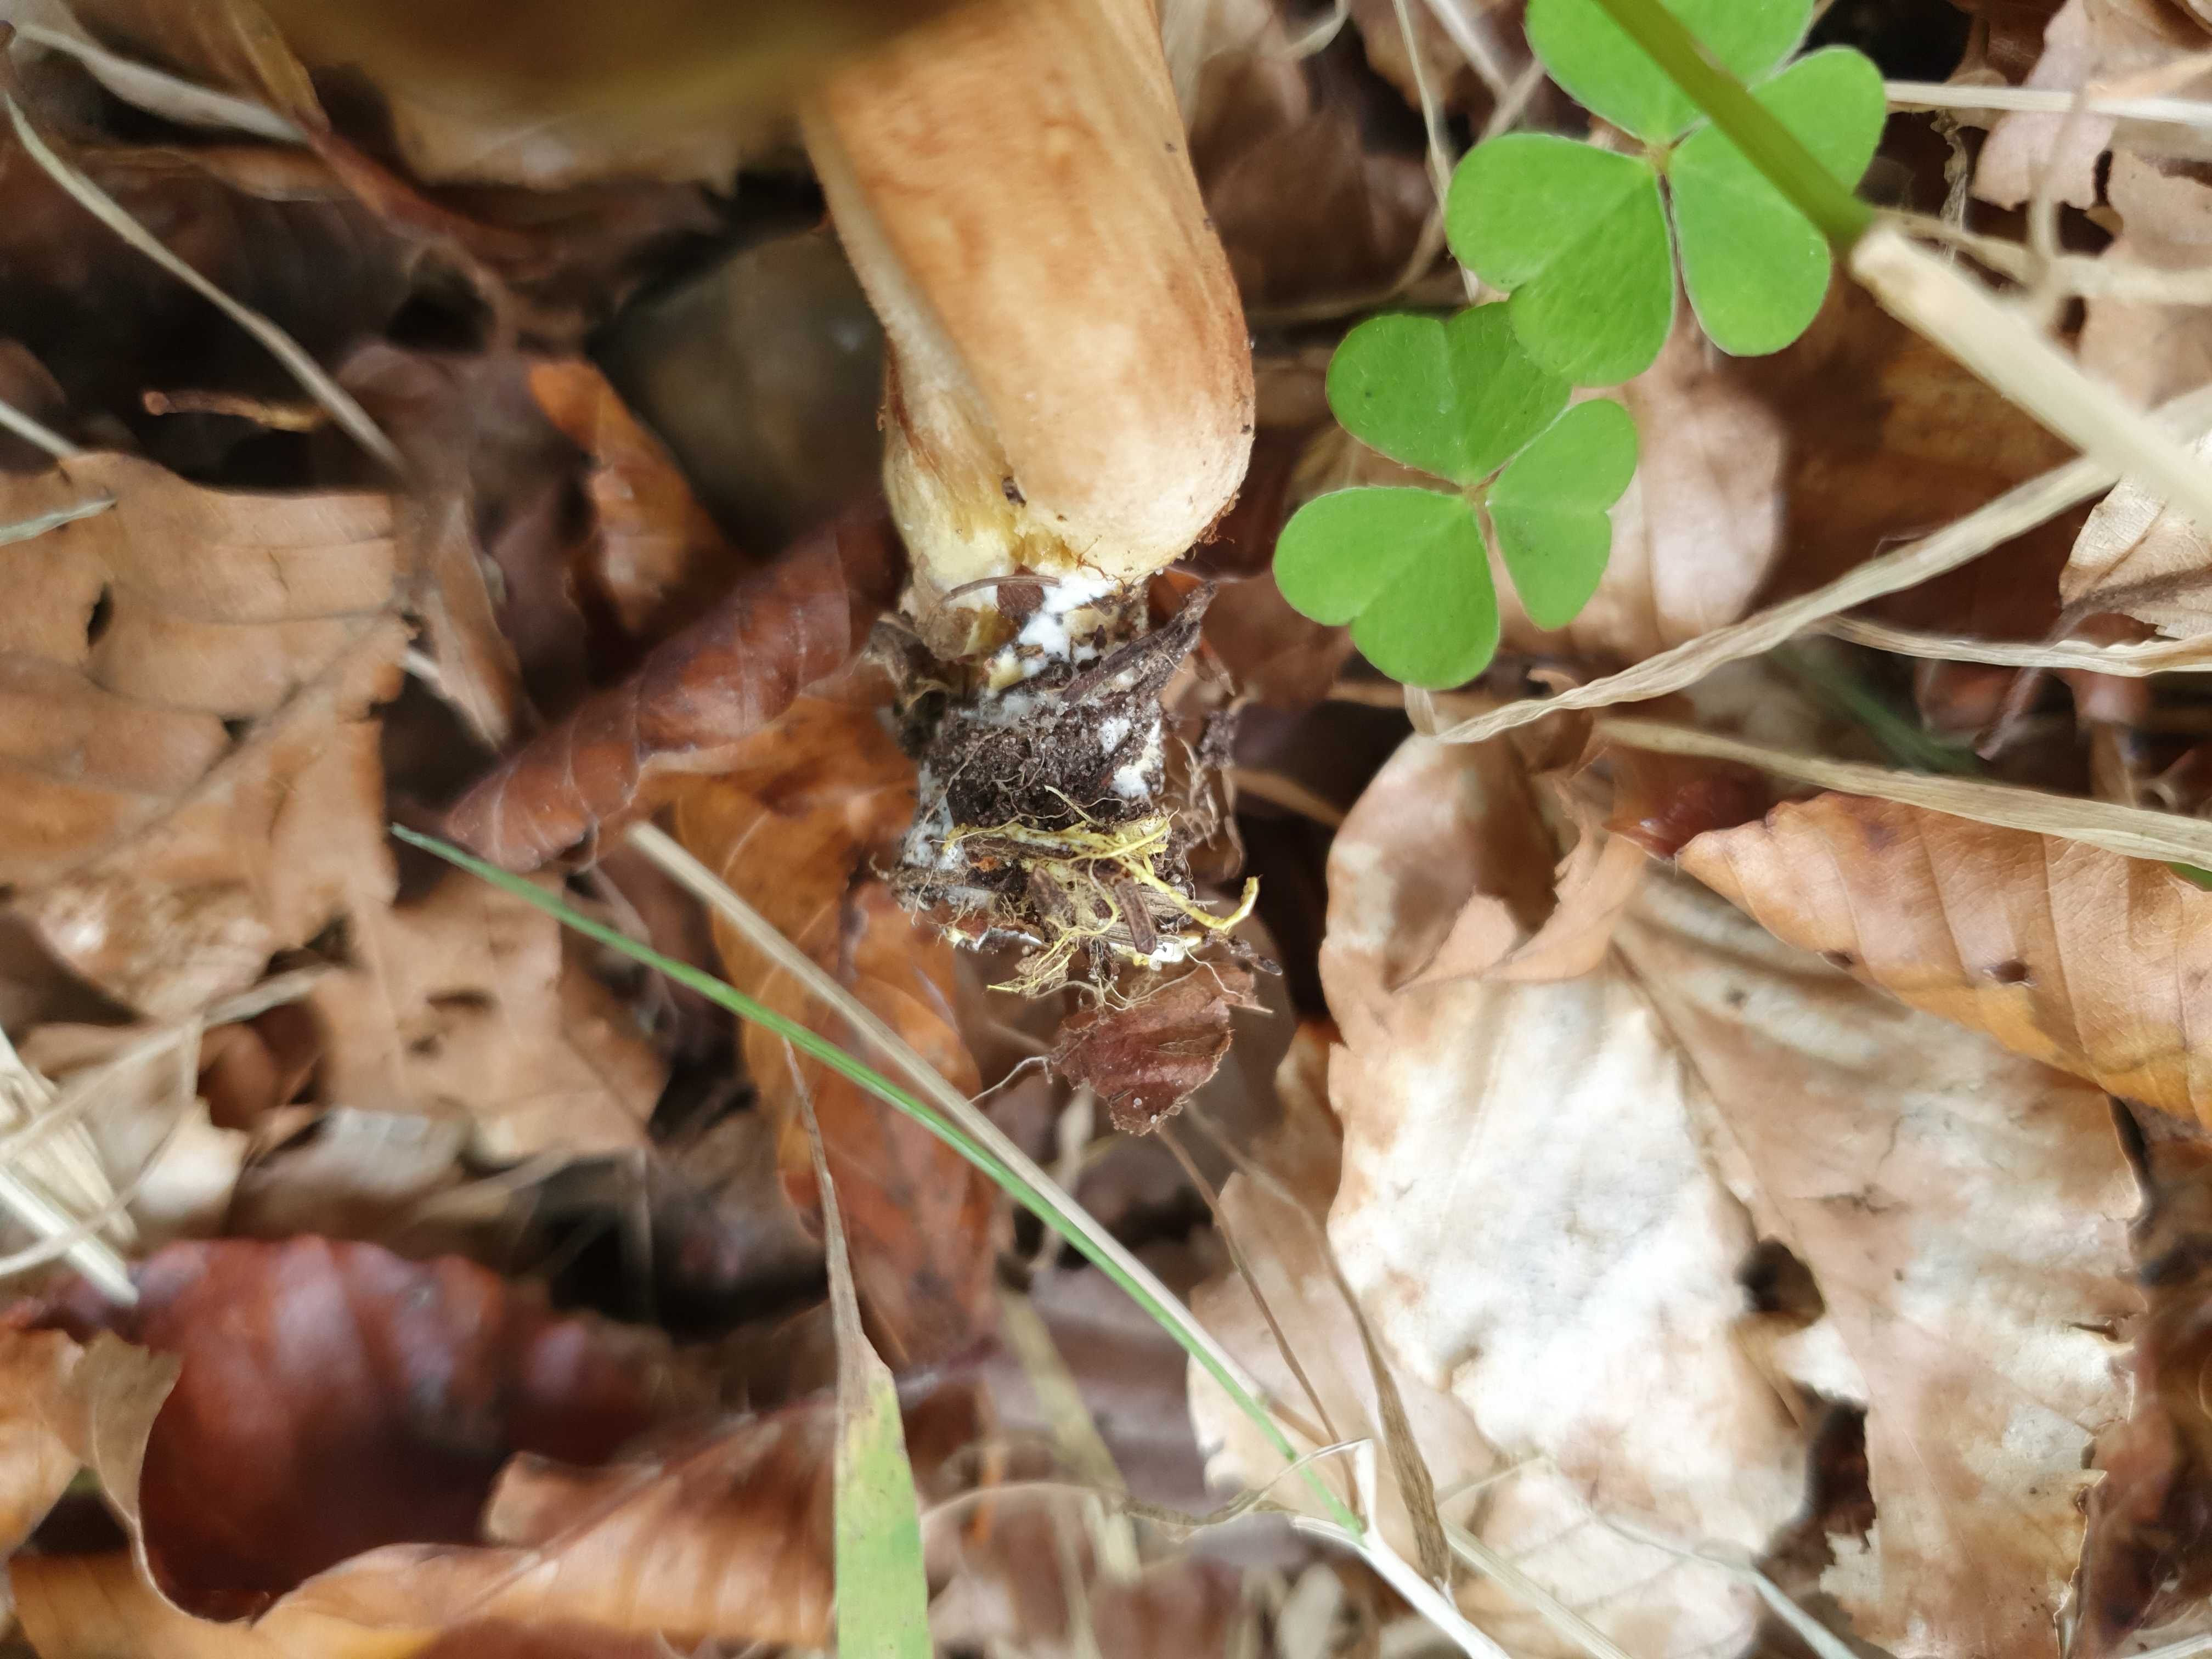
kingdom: Fungi
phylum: Basidiomycota
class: Agaricomycetes
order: Boletales
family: Boletaceae
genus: Xerocomus
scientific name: Xerocomus ferrugineus
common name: vaskeskinds-rørhat
